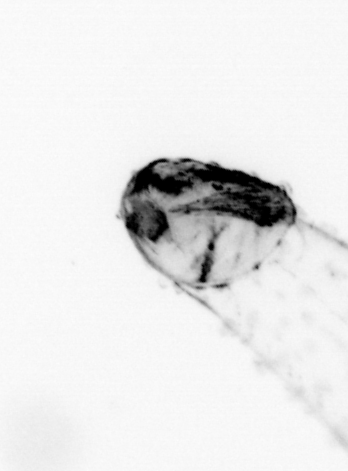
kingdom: Animalia
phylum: Chaetognatha
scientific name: Chaetognatha
